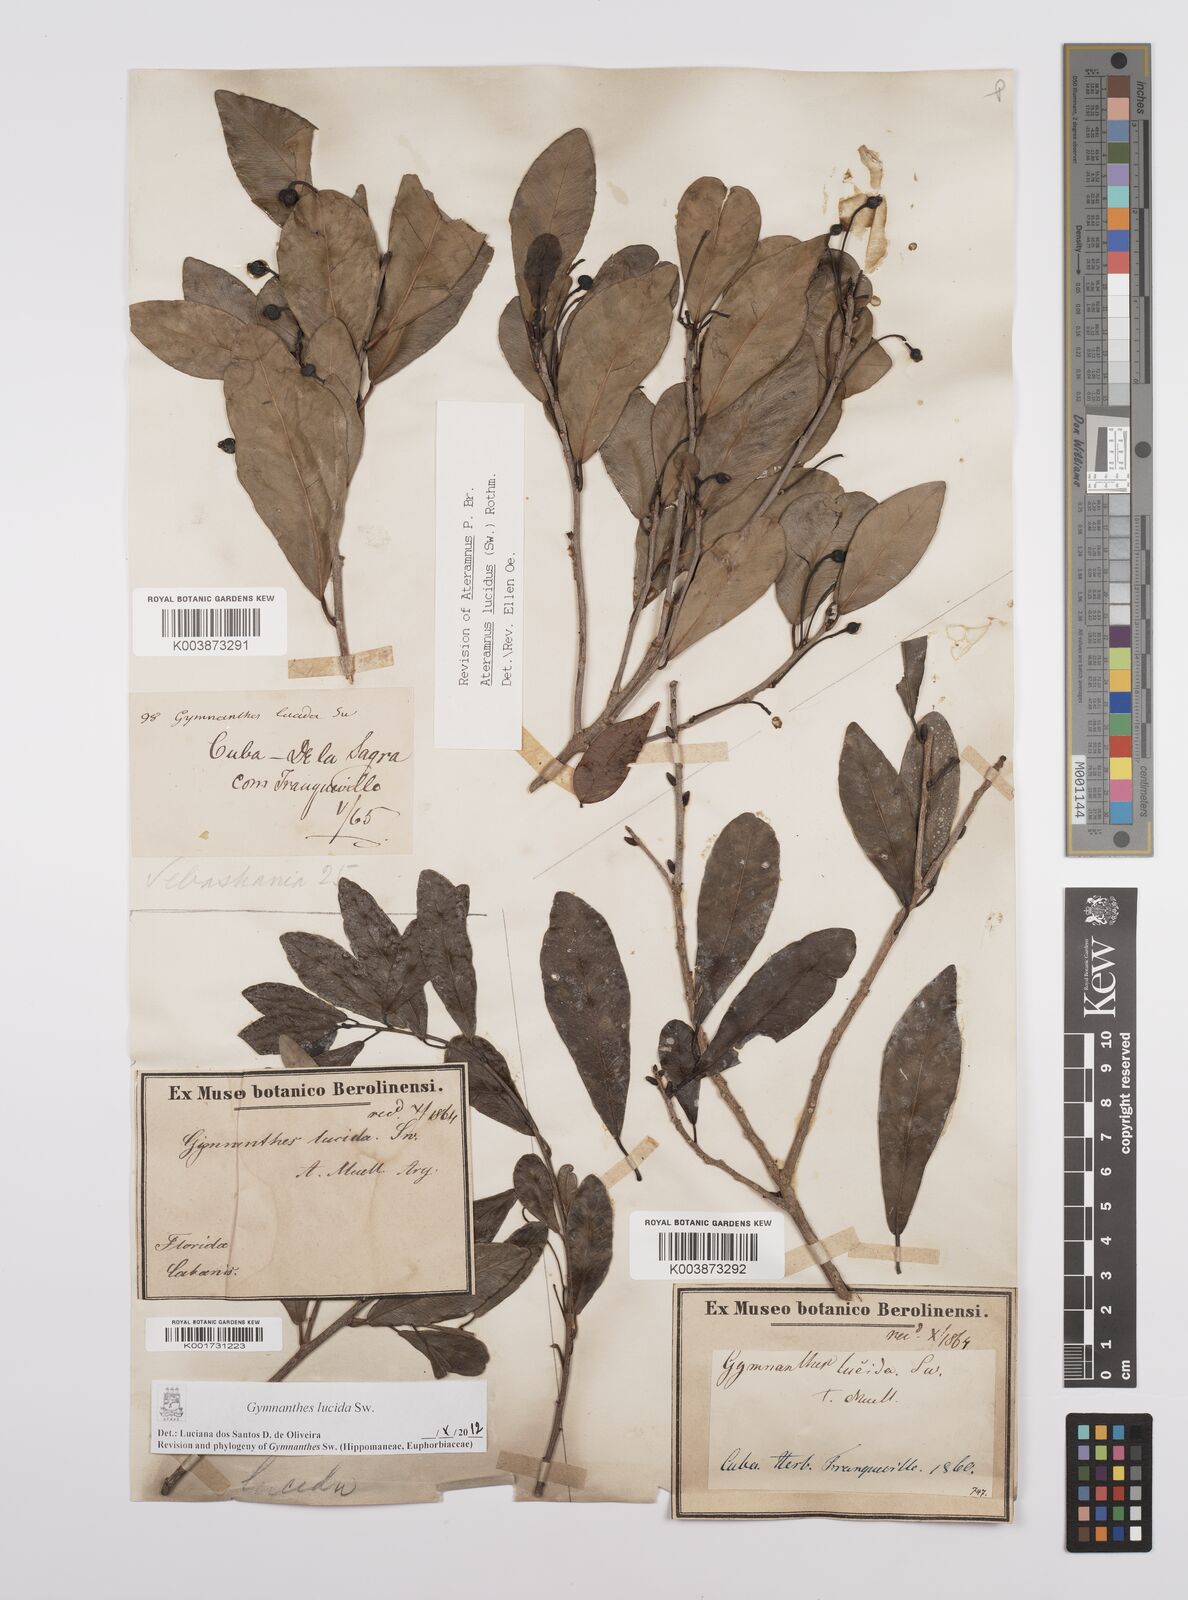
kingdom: Plantae
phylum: Tracheophyta
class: Magnoliopsida
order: Malpighiales
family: Euphorbiaceae
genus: Gymnanthes
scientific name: Gymnanthes lucida
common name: Oysterwood
